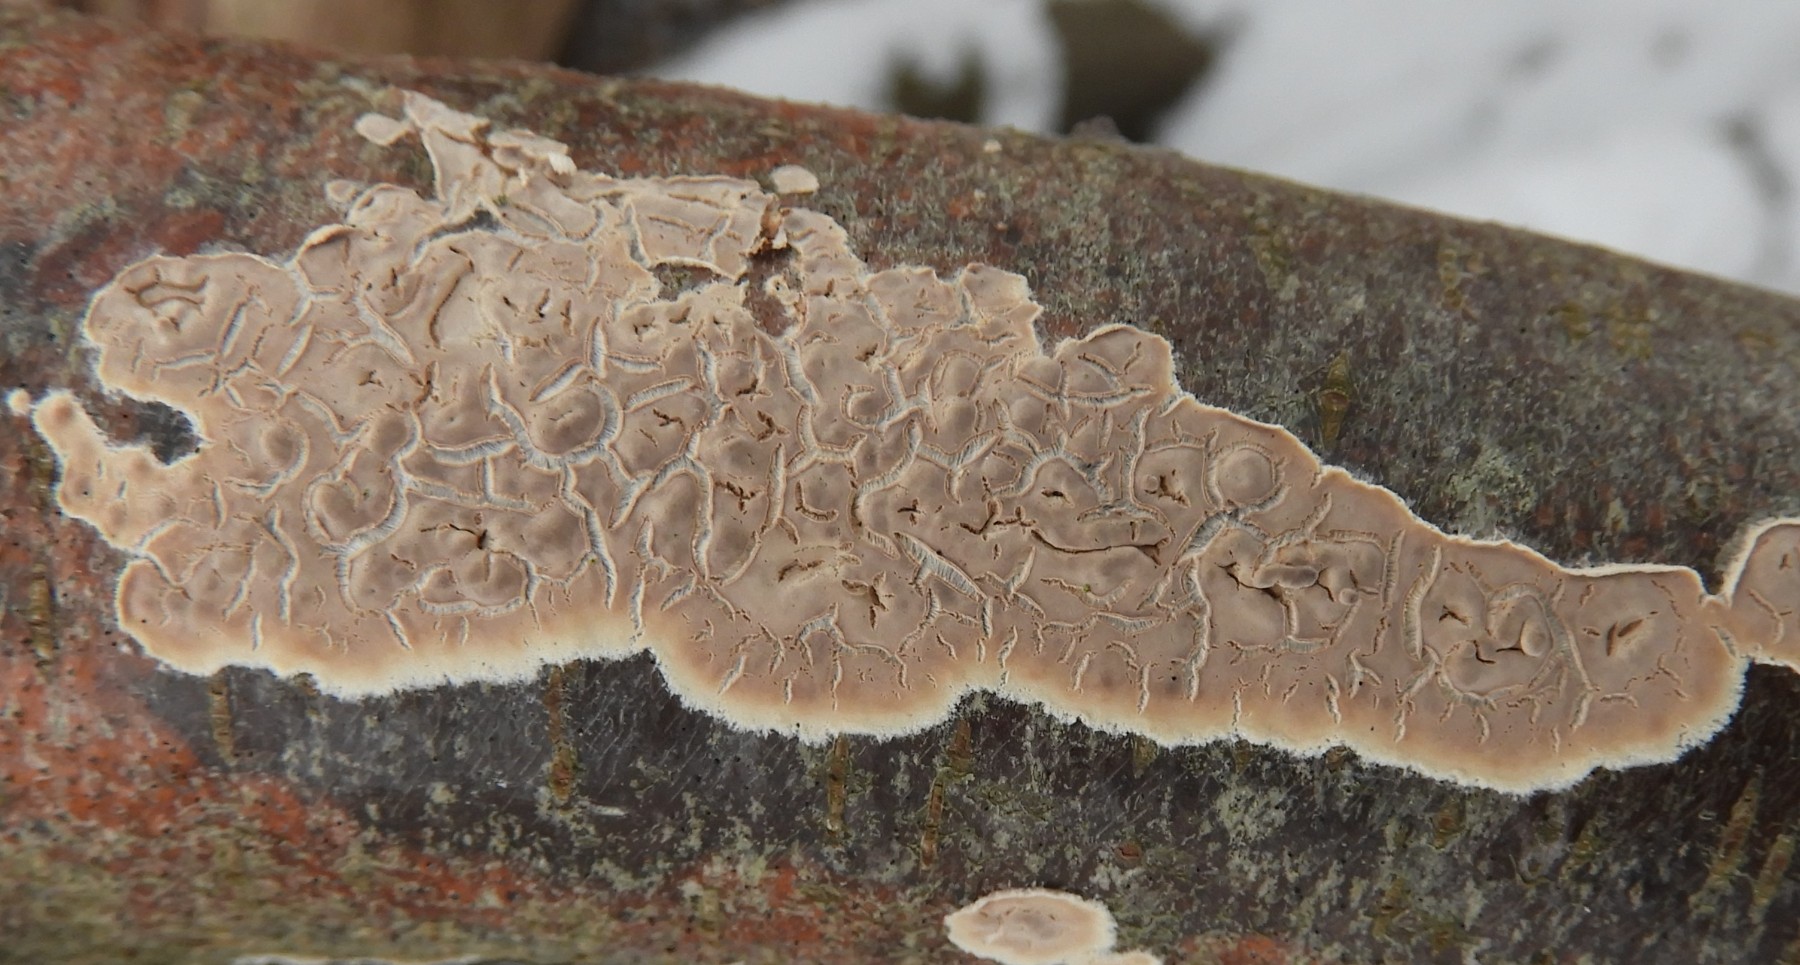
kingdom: Fungi
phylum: Basidiomycota
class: Agaricomycetes
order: Agaricales
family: Physalacriaceae
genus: Cylindrobasidium
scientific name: Cylindrobasidium evolvens
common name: sprækkehinde
